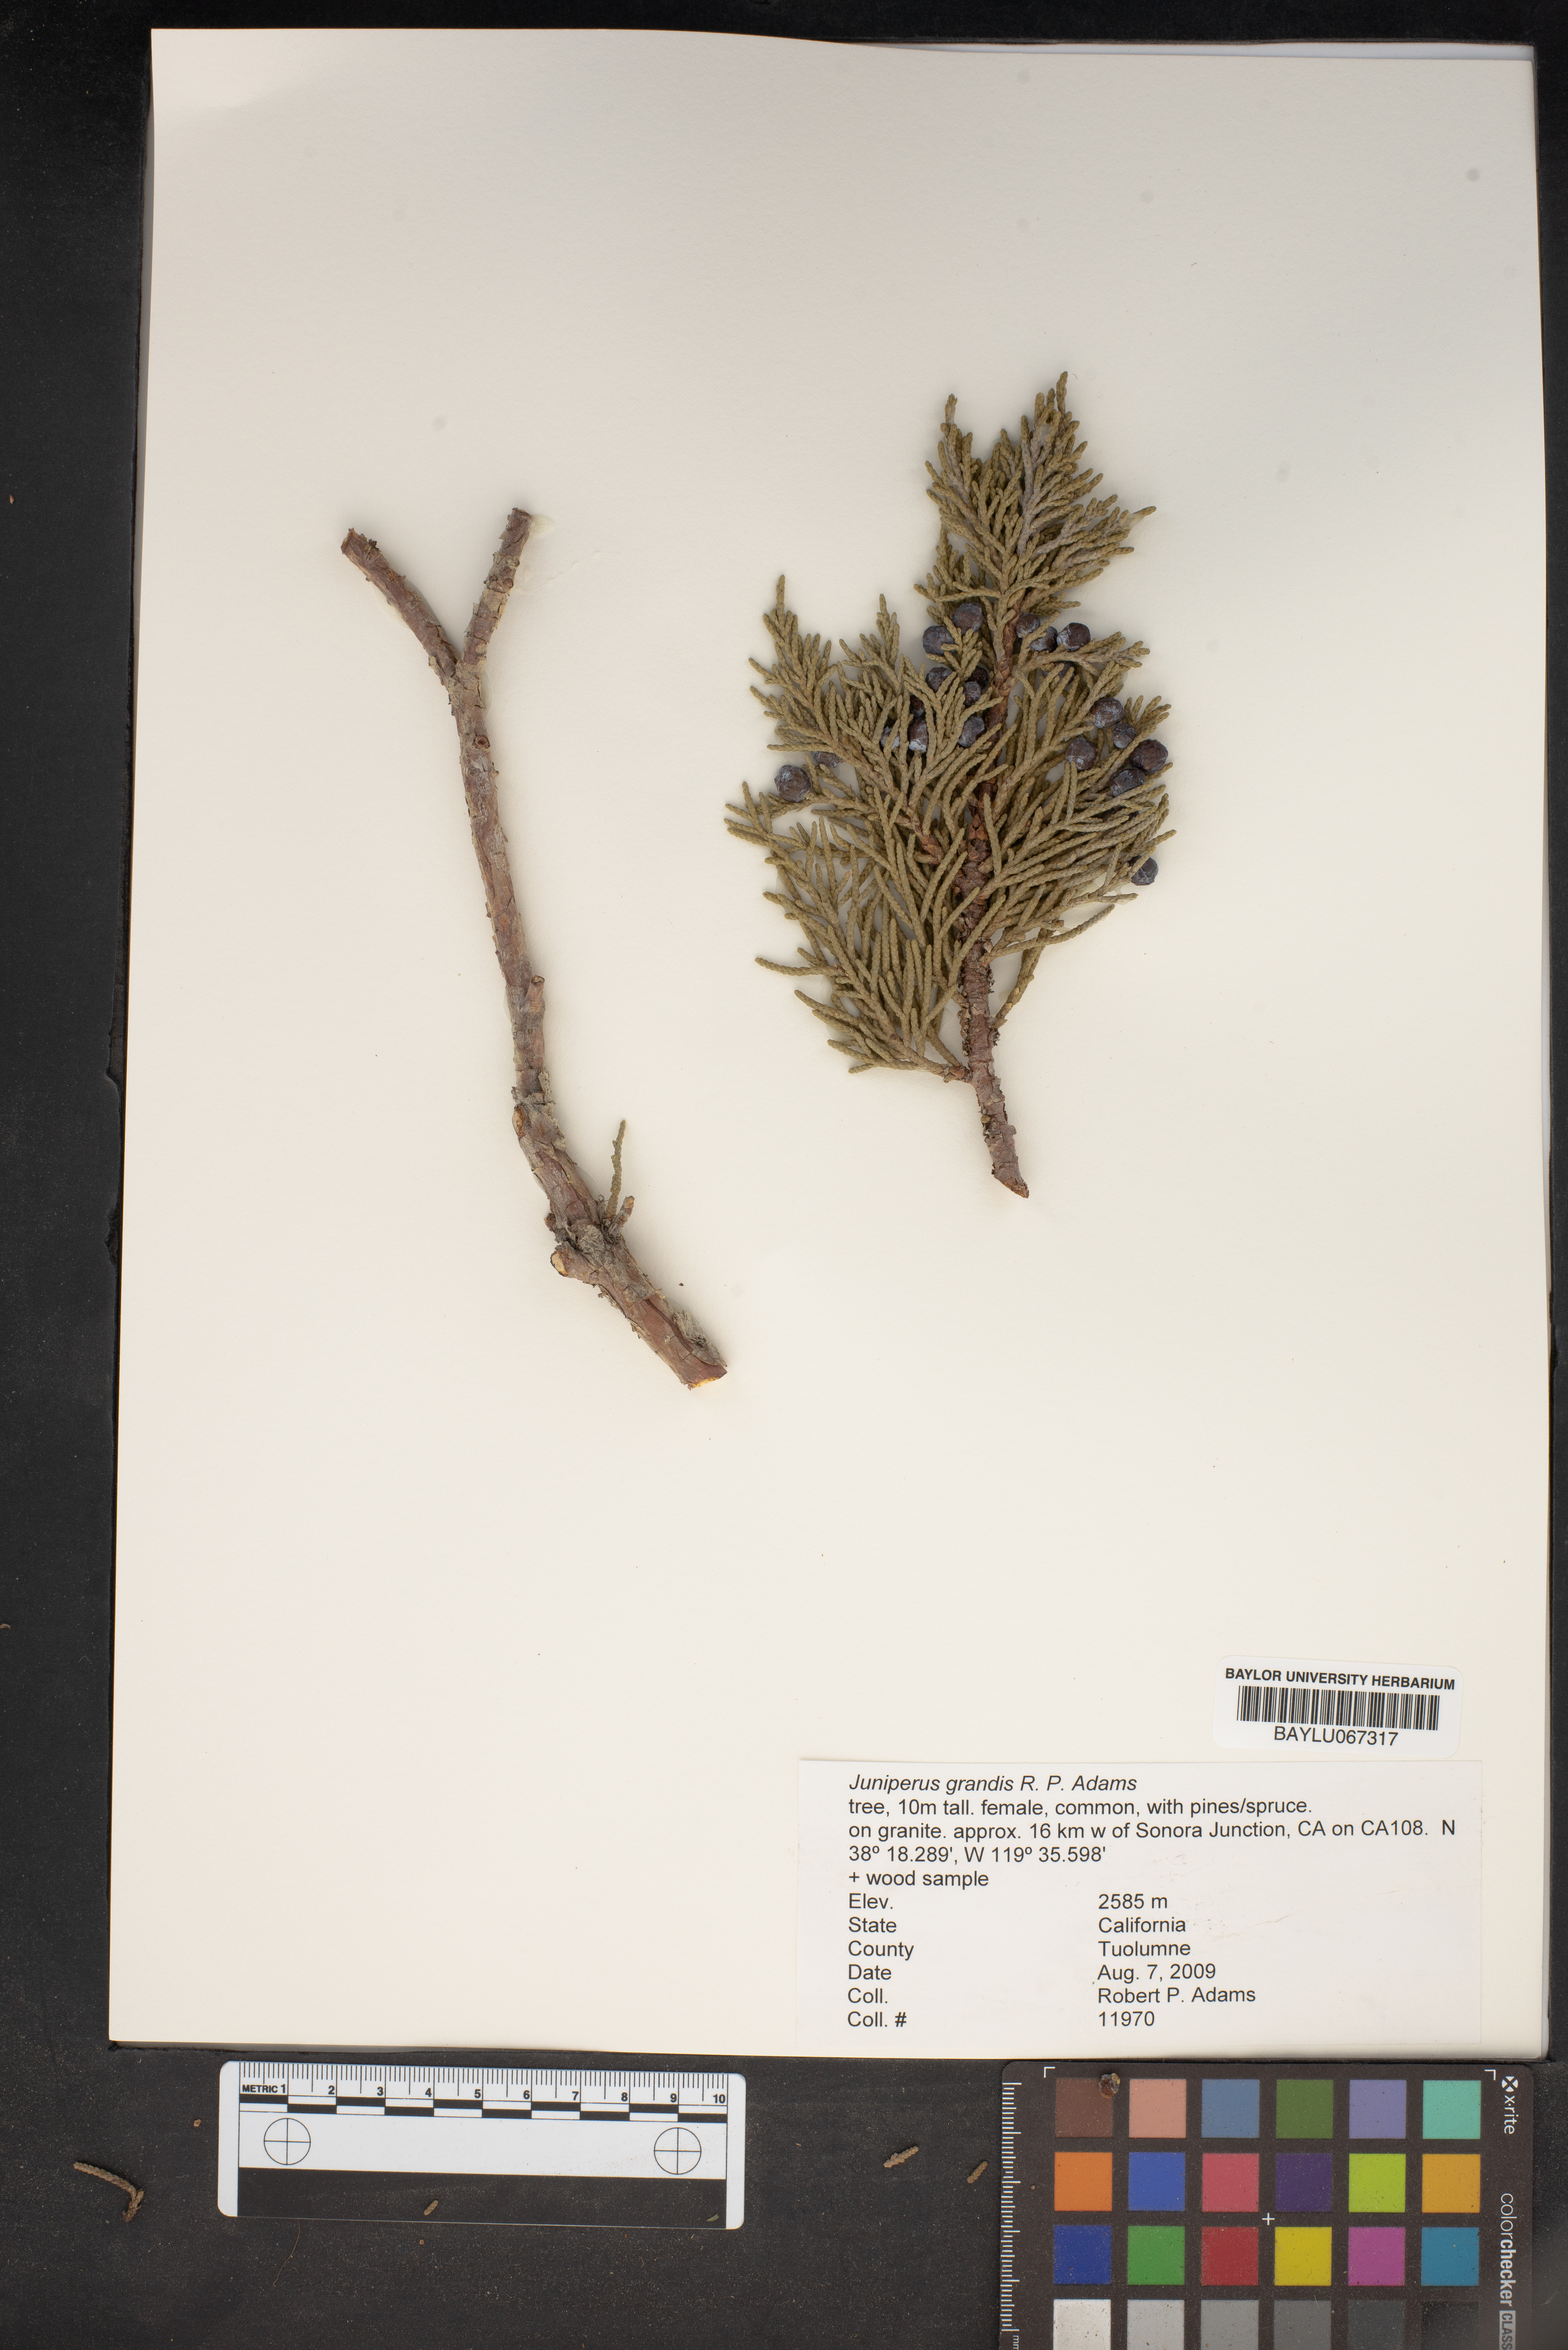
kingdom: Plantae
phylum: Tracheophyta
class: Pinopsida
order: Pinales
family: Cupressaceae
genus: Juniperus
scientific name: Juniperus occidentalis
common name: Western juniper
